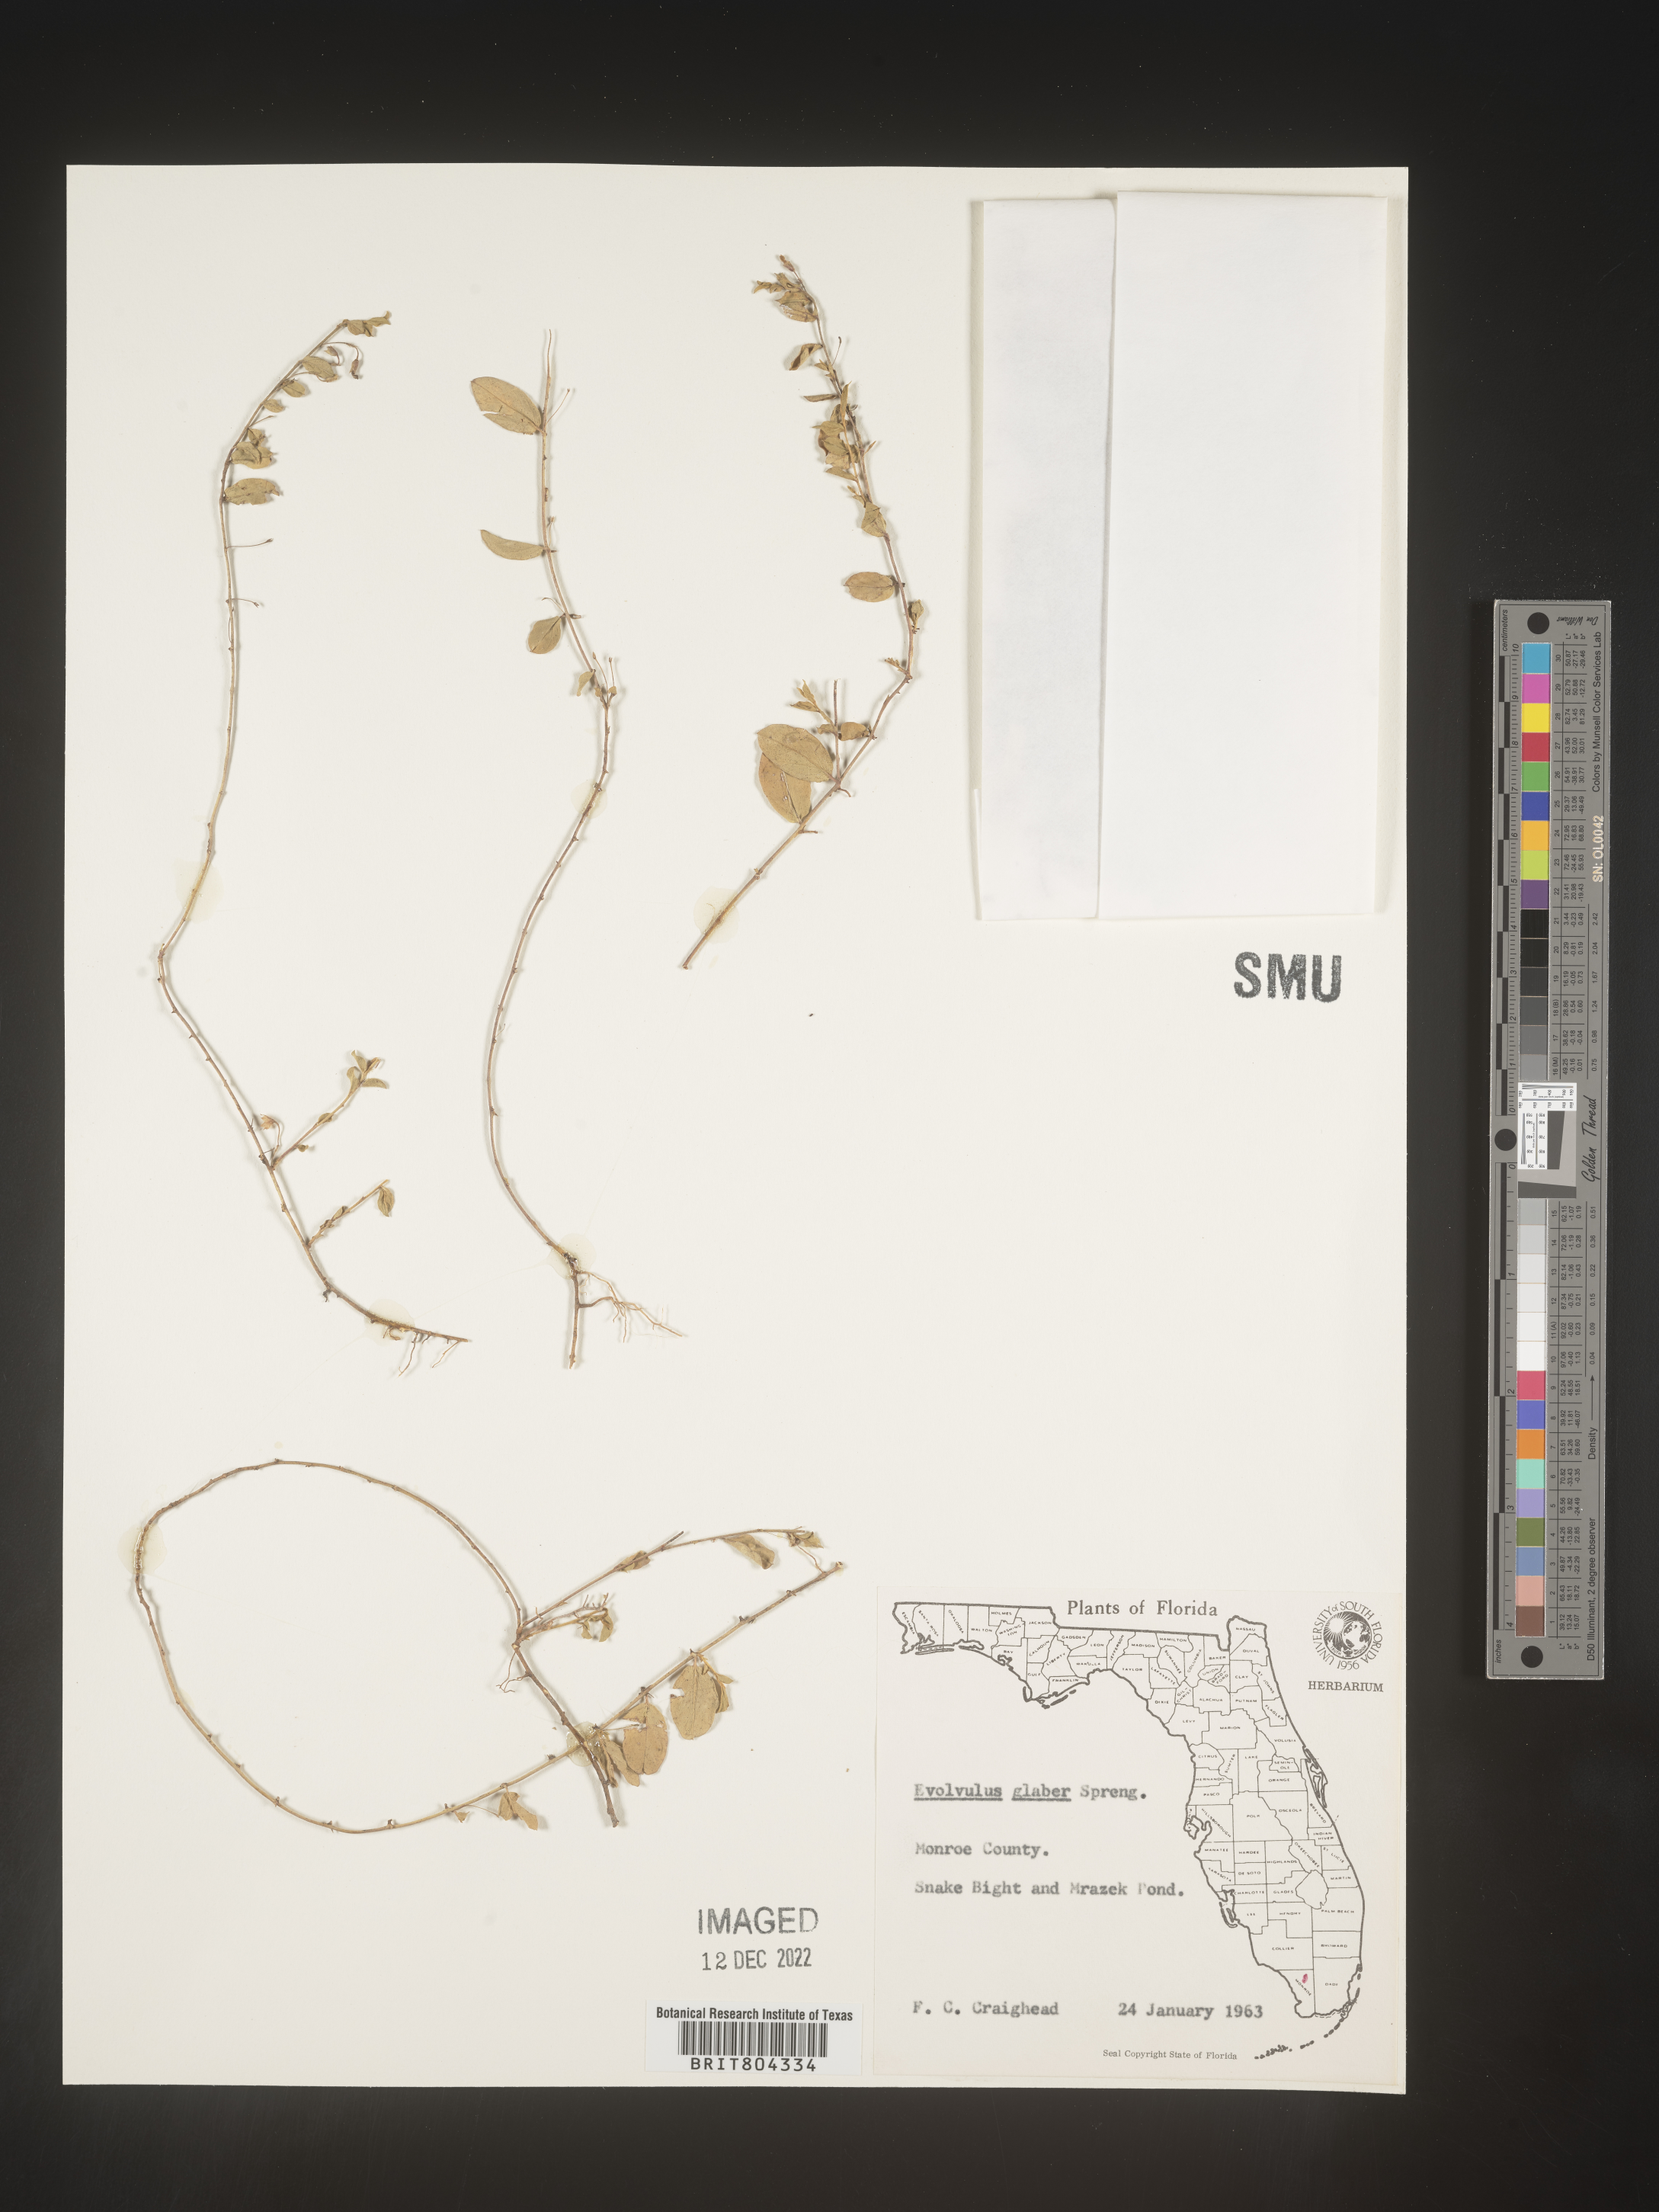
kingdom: Plantae
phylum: Tracheophyta
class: Magnoliopsida
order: Solanales
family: Convolvulaceae
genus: Evolvulus
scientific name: Evolvulus convolvuloides
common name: Bindweed dwarf morning-glory
